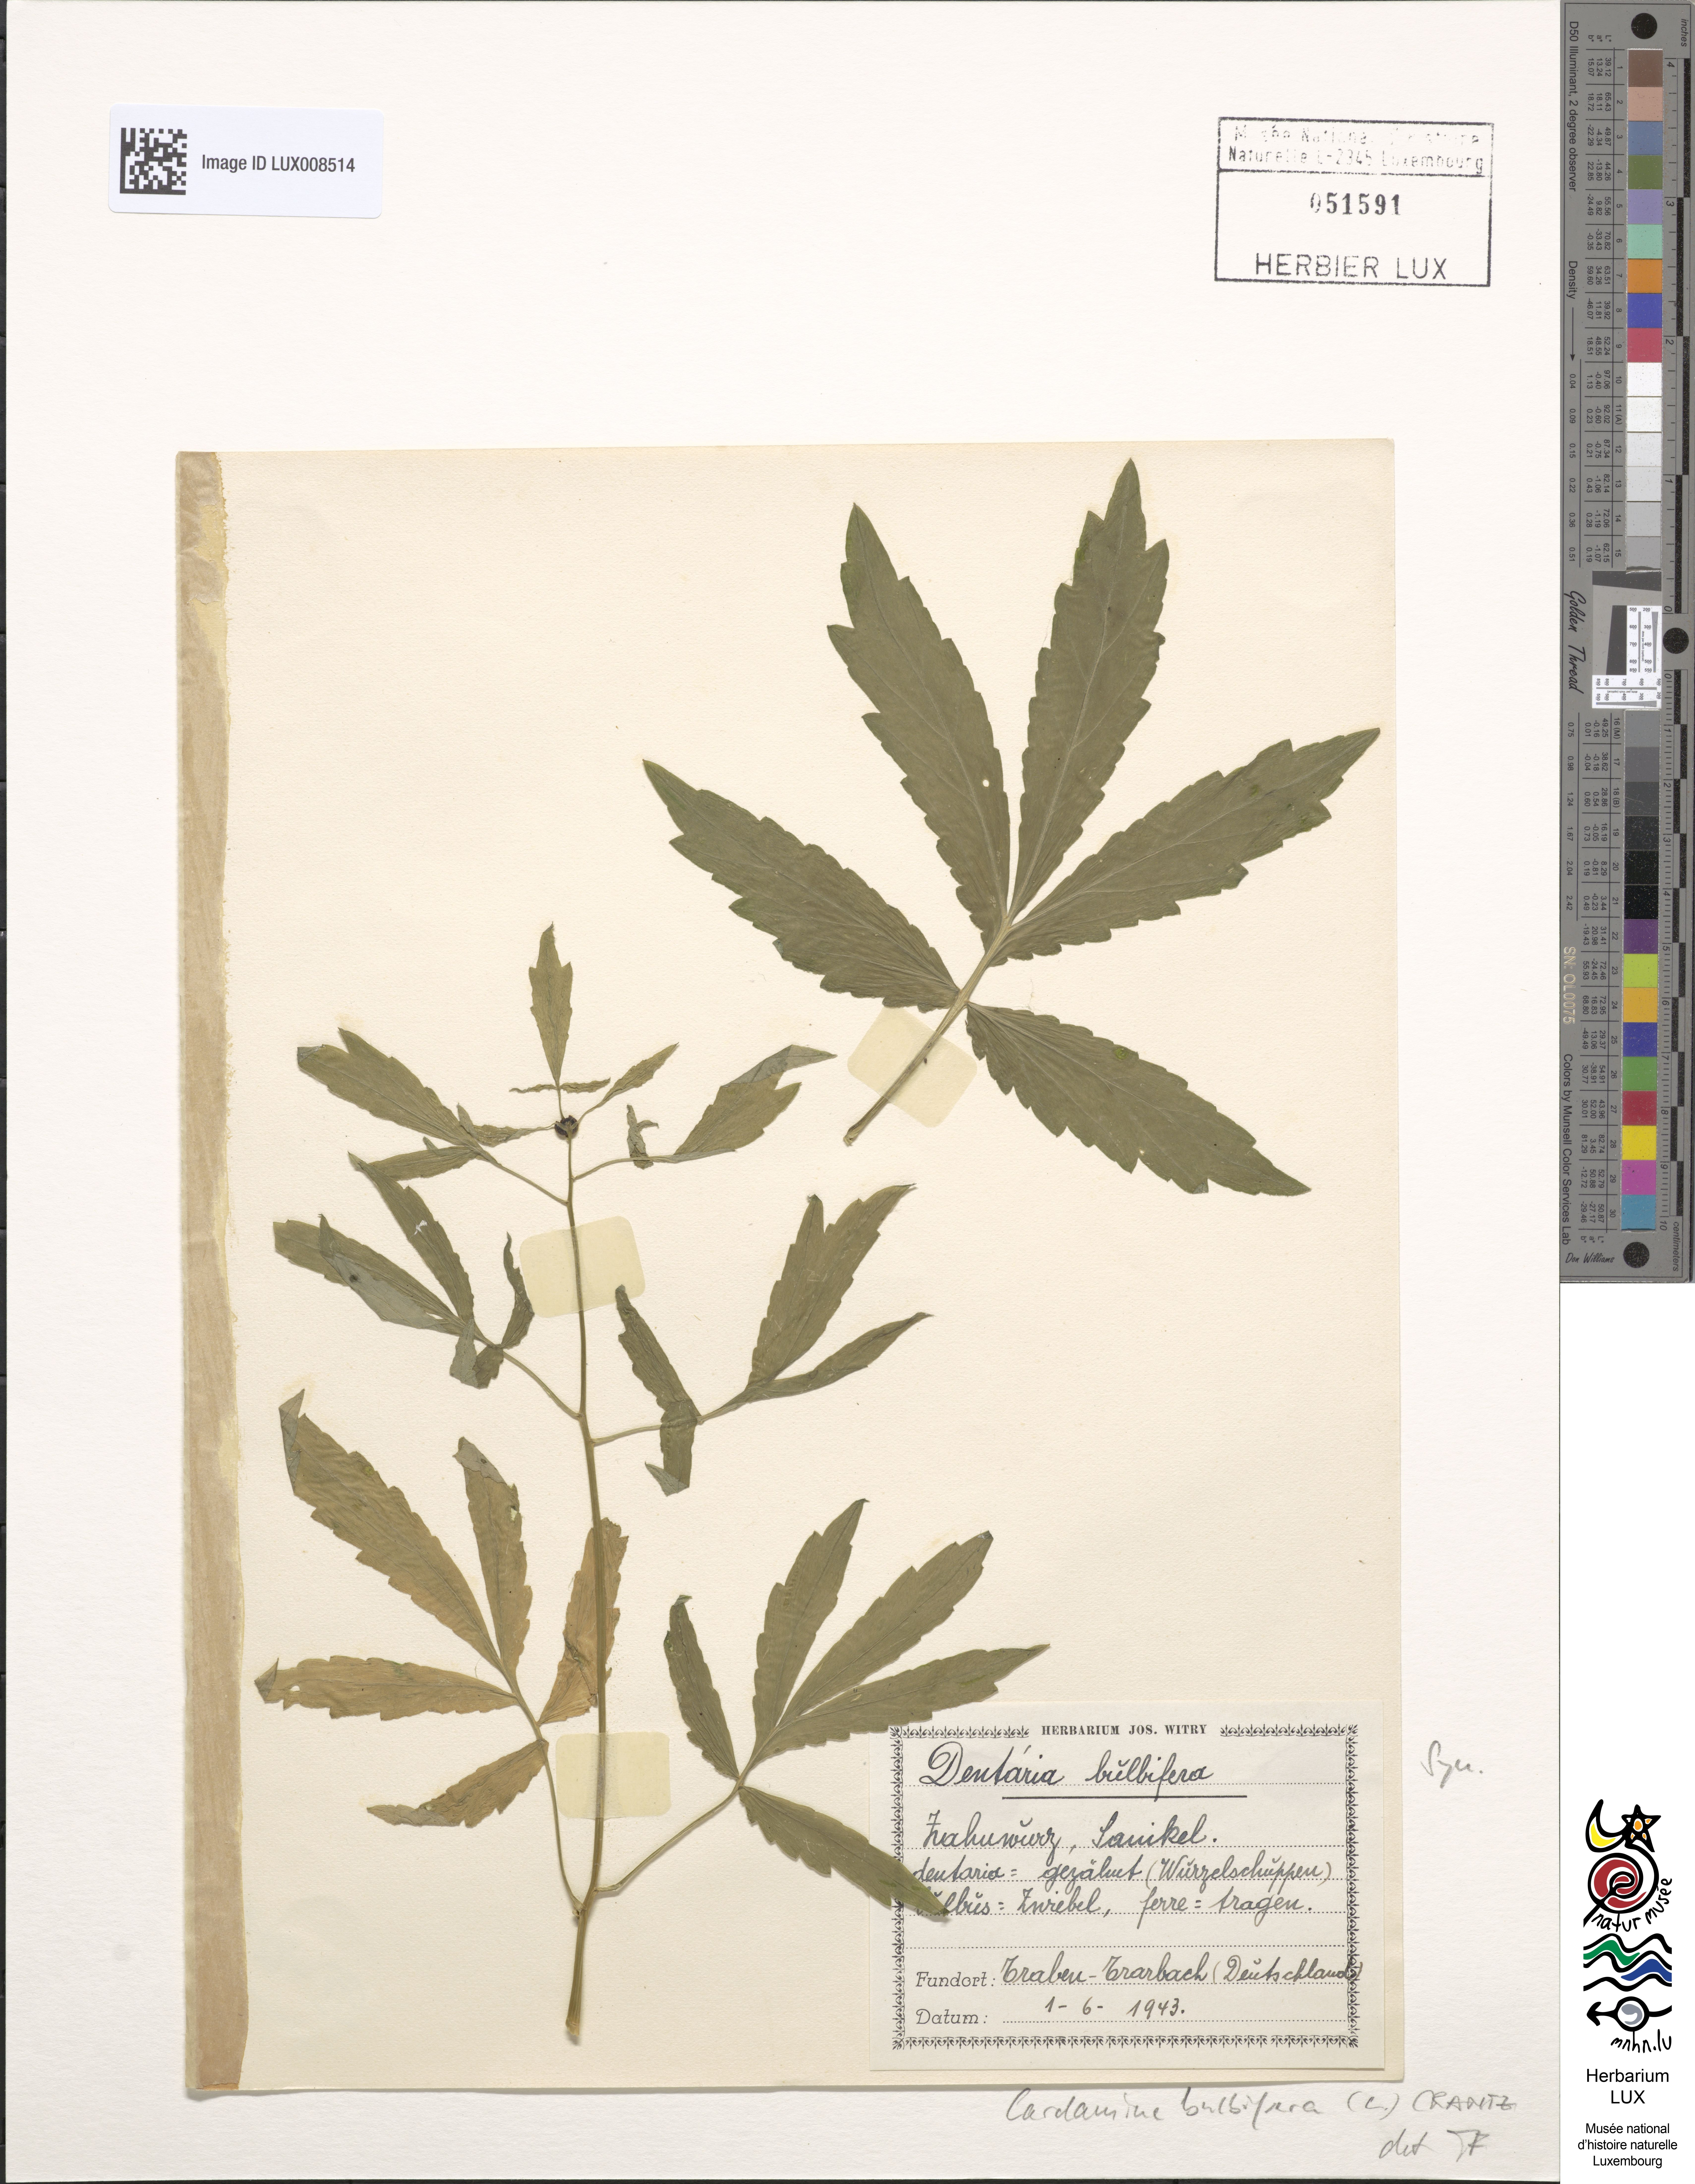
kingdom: Plantae
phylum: Tracheophyta
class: Magnoliopsida
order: Brassicales
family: Brassicaceae
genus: Cardamine
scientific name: Cardamine bulbifera
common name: Coralroot bittercress
